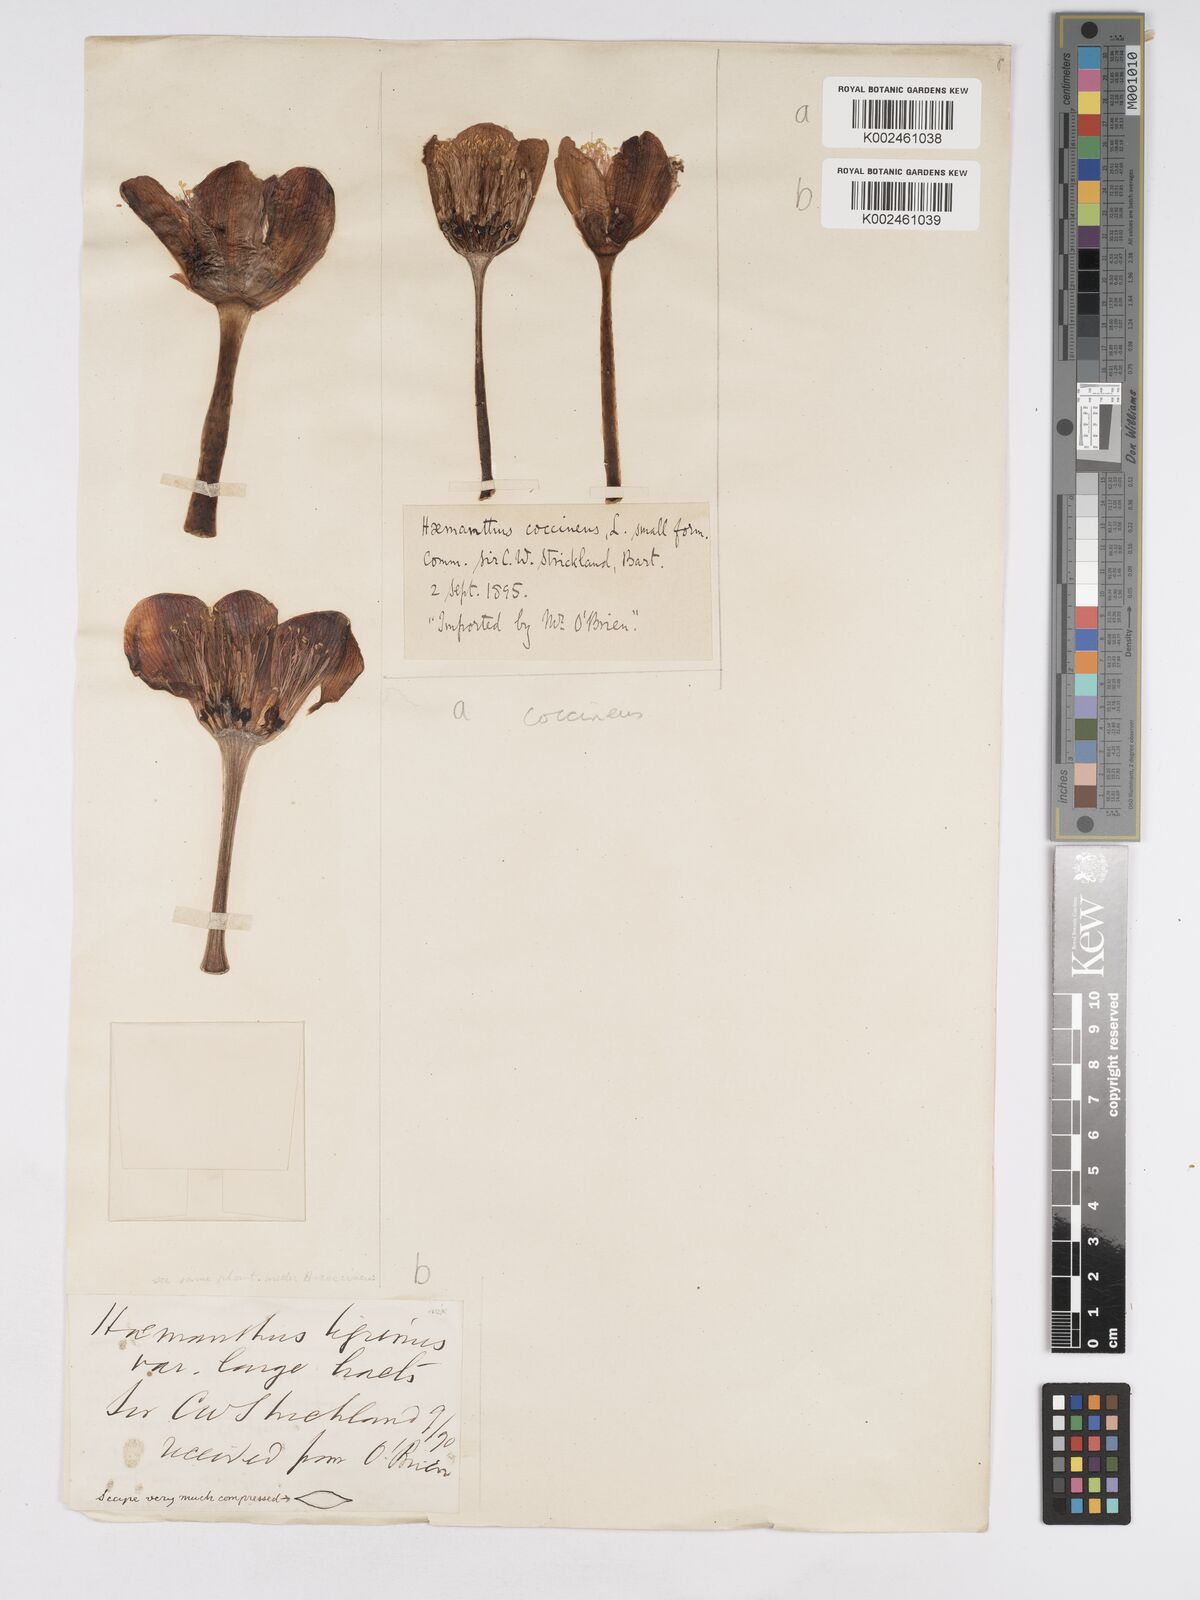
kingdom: Plantae
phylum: Tracheophyta
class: Liliopsida
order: Asparagales
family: Amaryllidaceae
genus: Haemanthus
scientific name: Haemanthus coccineus
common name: Cape-tulip
